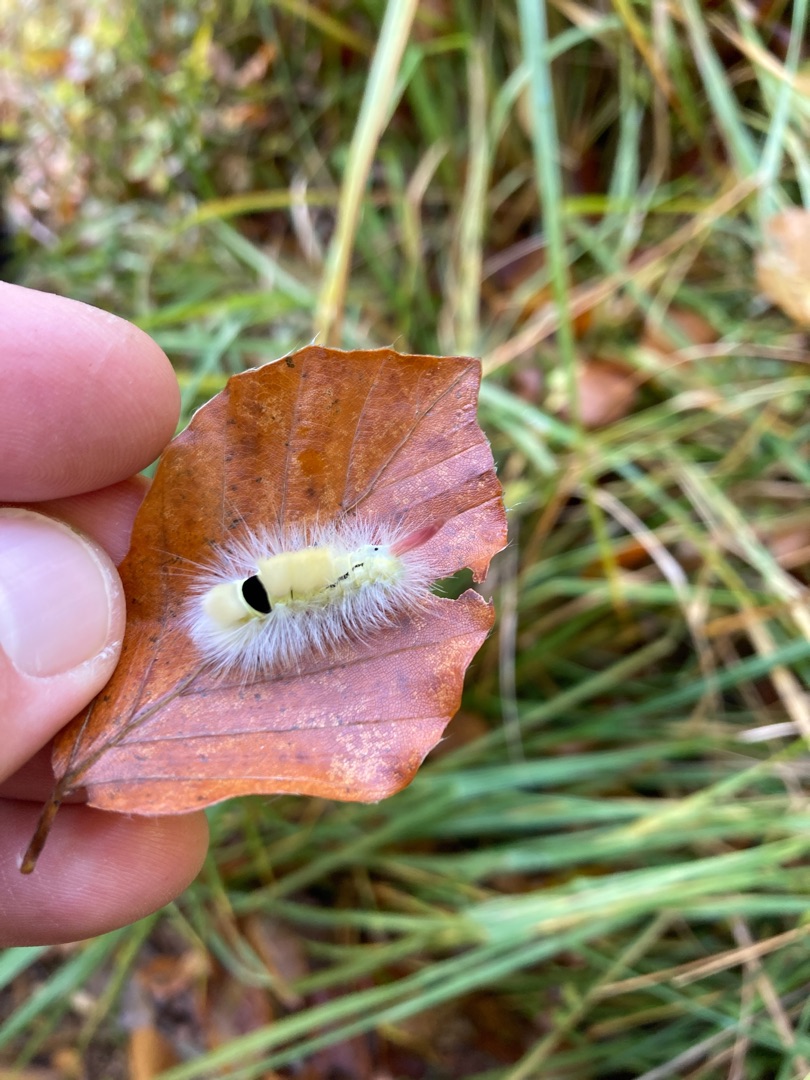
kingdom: Animalia
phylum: Arthropoda
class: Insecta
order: Lepidoptera
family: Erebidae
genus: Calliteara
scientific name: Calliteara pudibunda
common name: Bøgenonne
